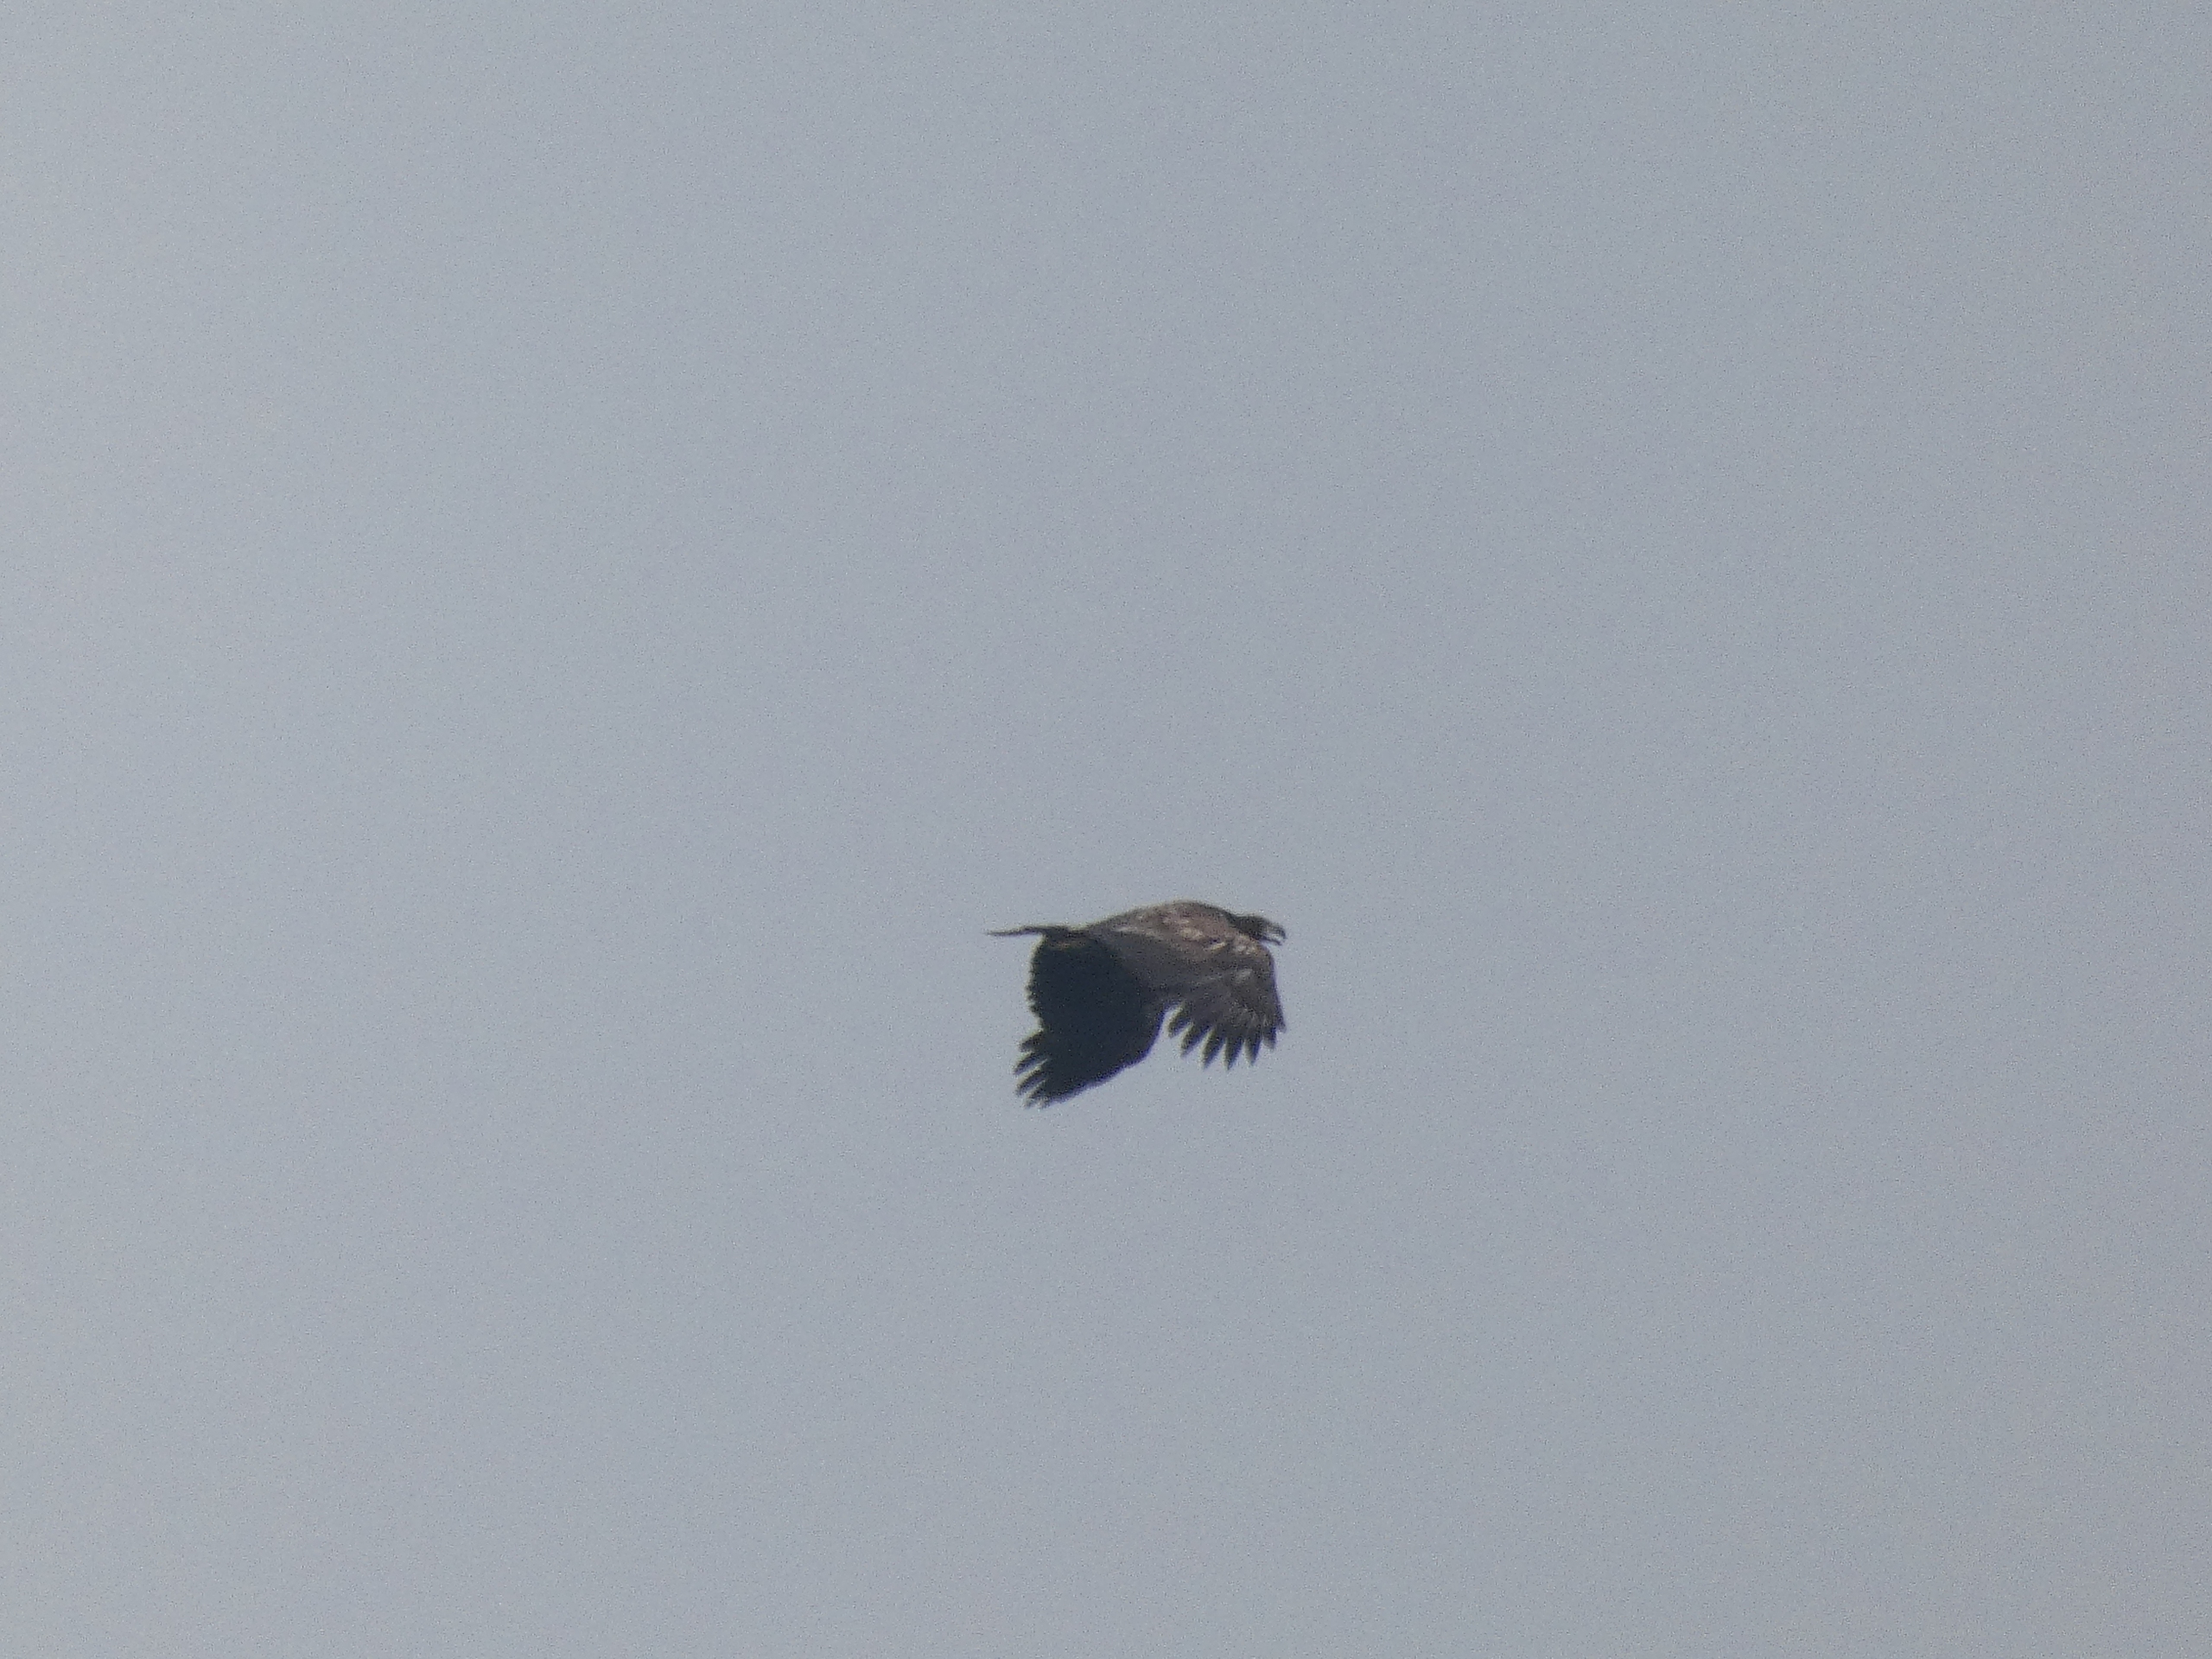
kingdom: Animalia
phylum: Chordata
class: Aves
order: Accipitriformes
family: Accipitridae
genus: Haliaeetus
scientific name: Haliaeetus albicilla
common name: Havørn
